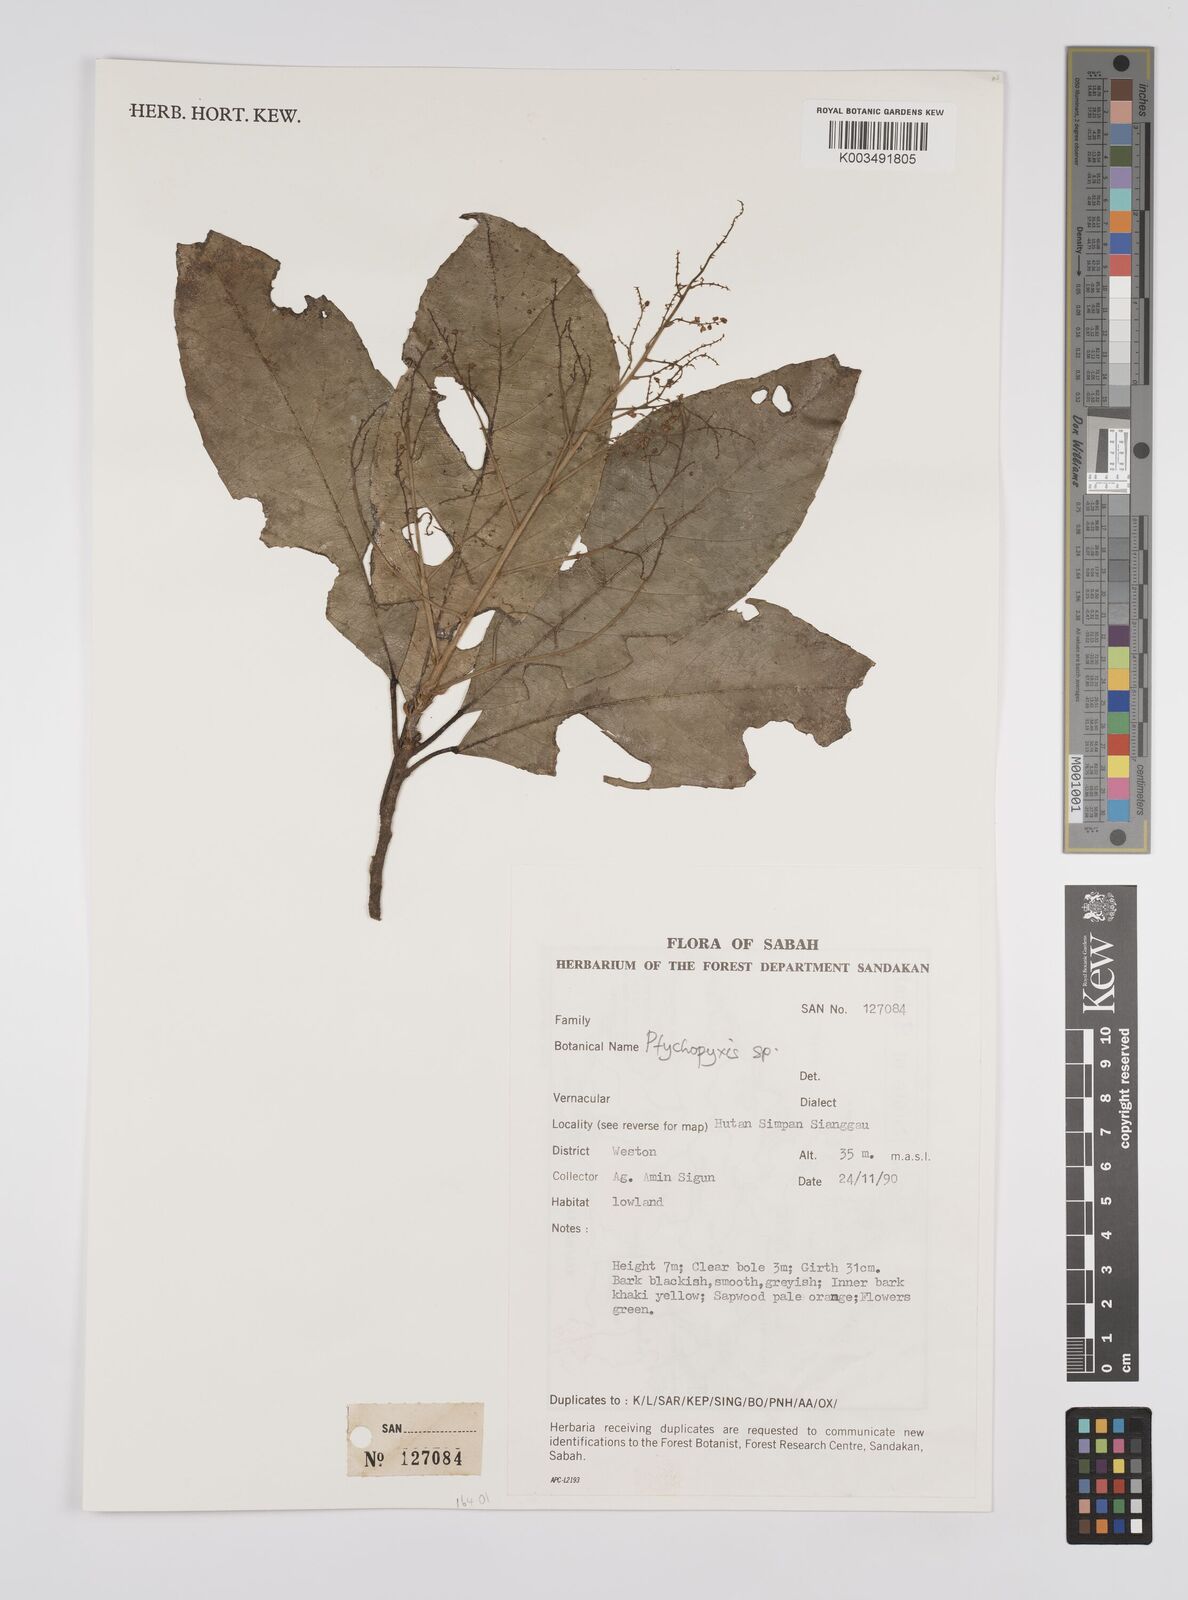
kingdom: Plantae
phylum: Tracheophyta
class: Magnoliopsida
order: Malpighiales
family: Euphorbiaceae
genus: Ptychopyxis
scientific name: Ptychopyxis
